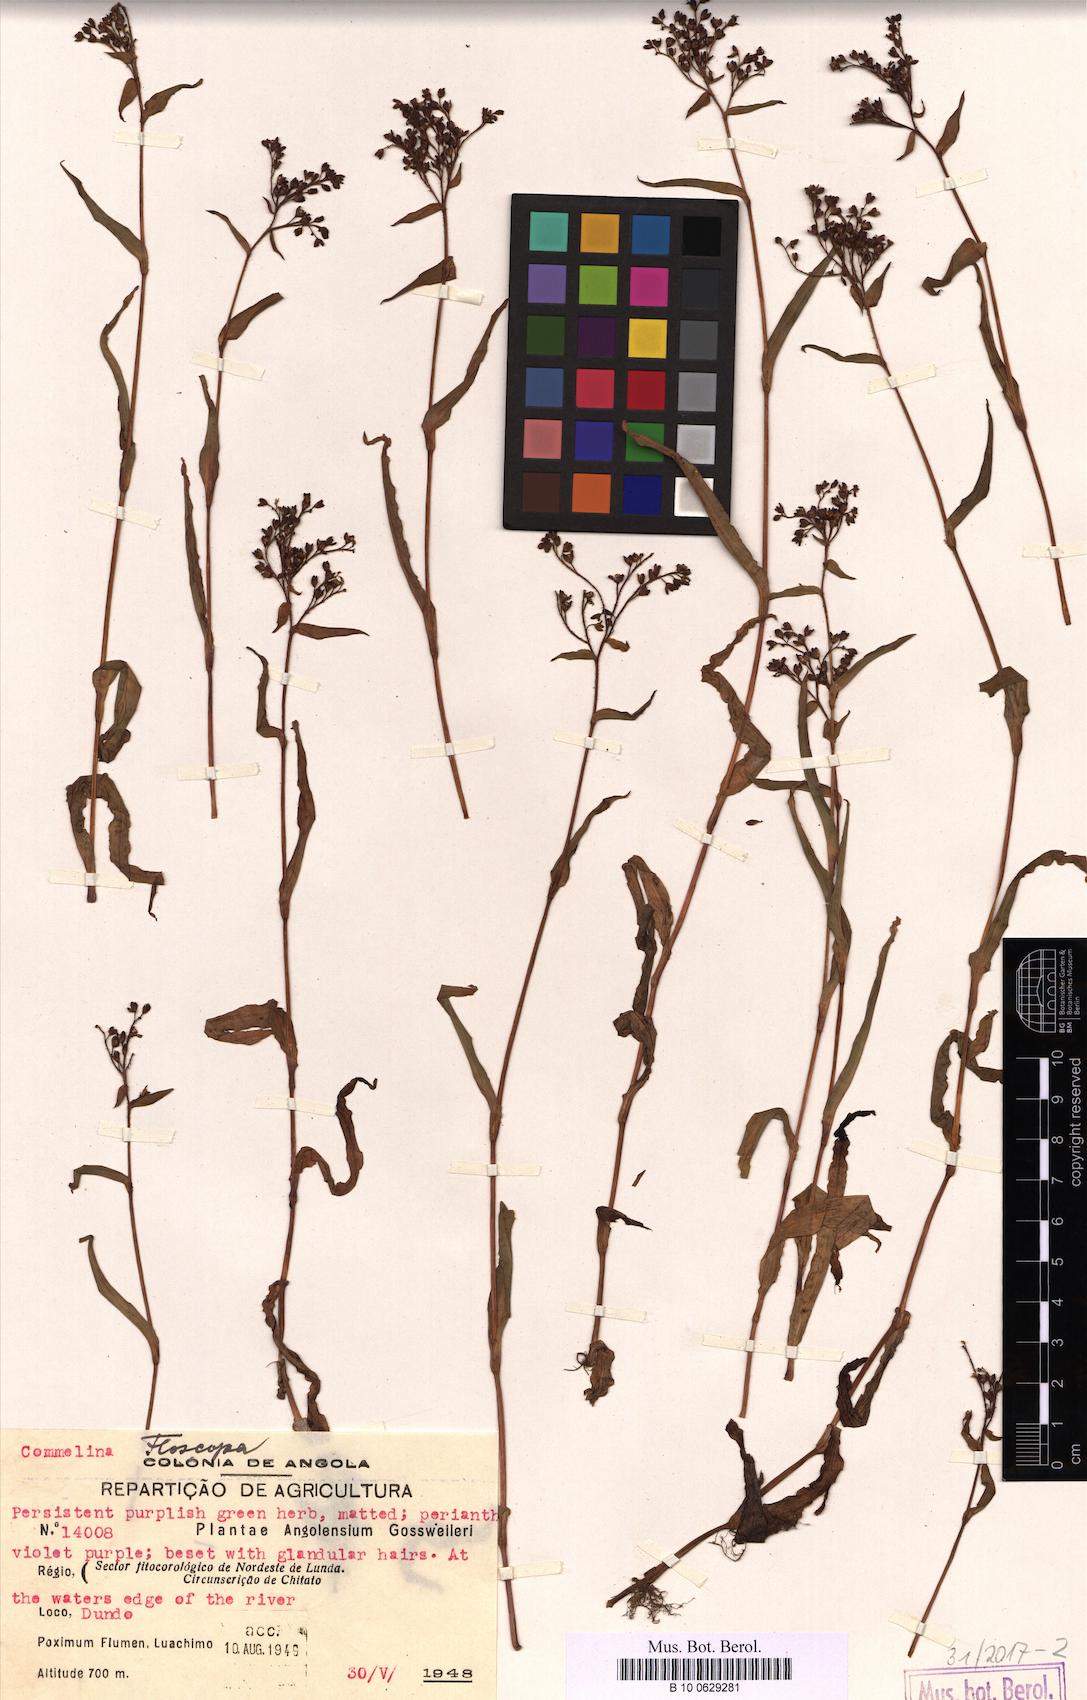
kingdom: Plantae
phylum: Tracheophyta
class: Liliopsida
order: Commelinales
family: Commelinaceae
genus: Floscopa
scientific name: Floscopa
